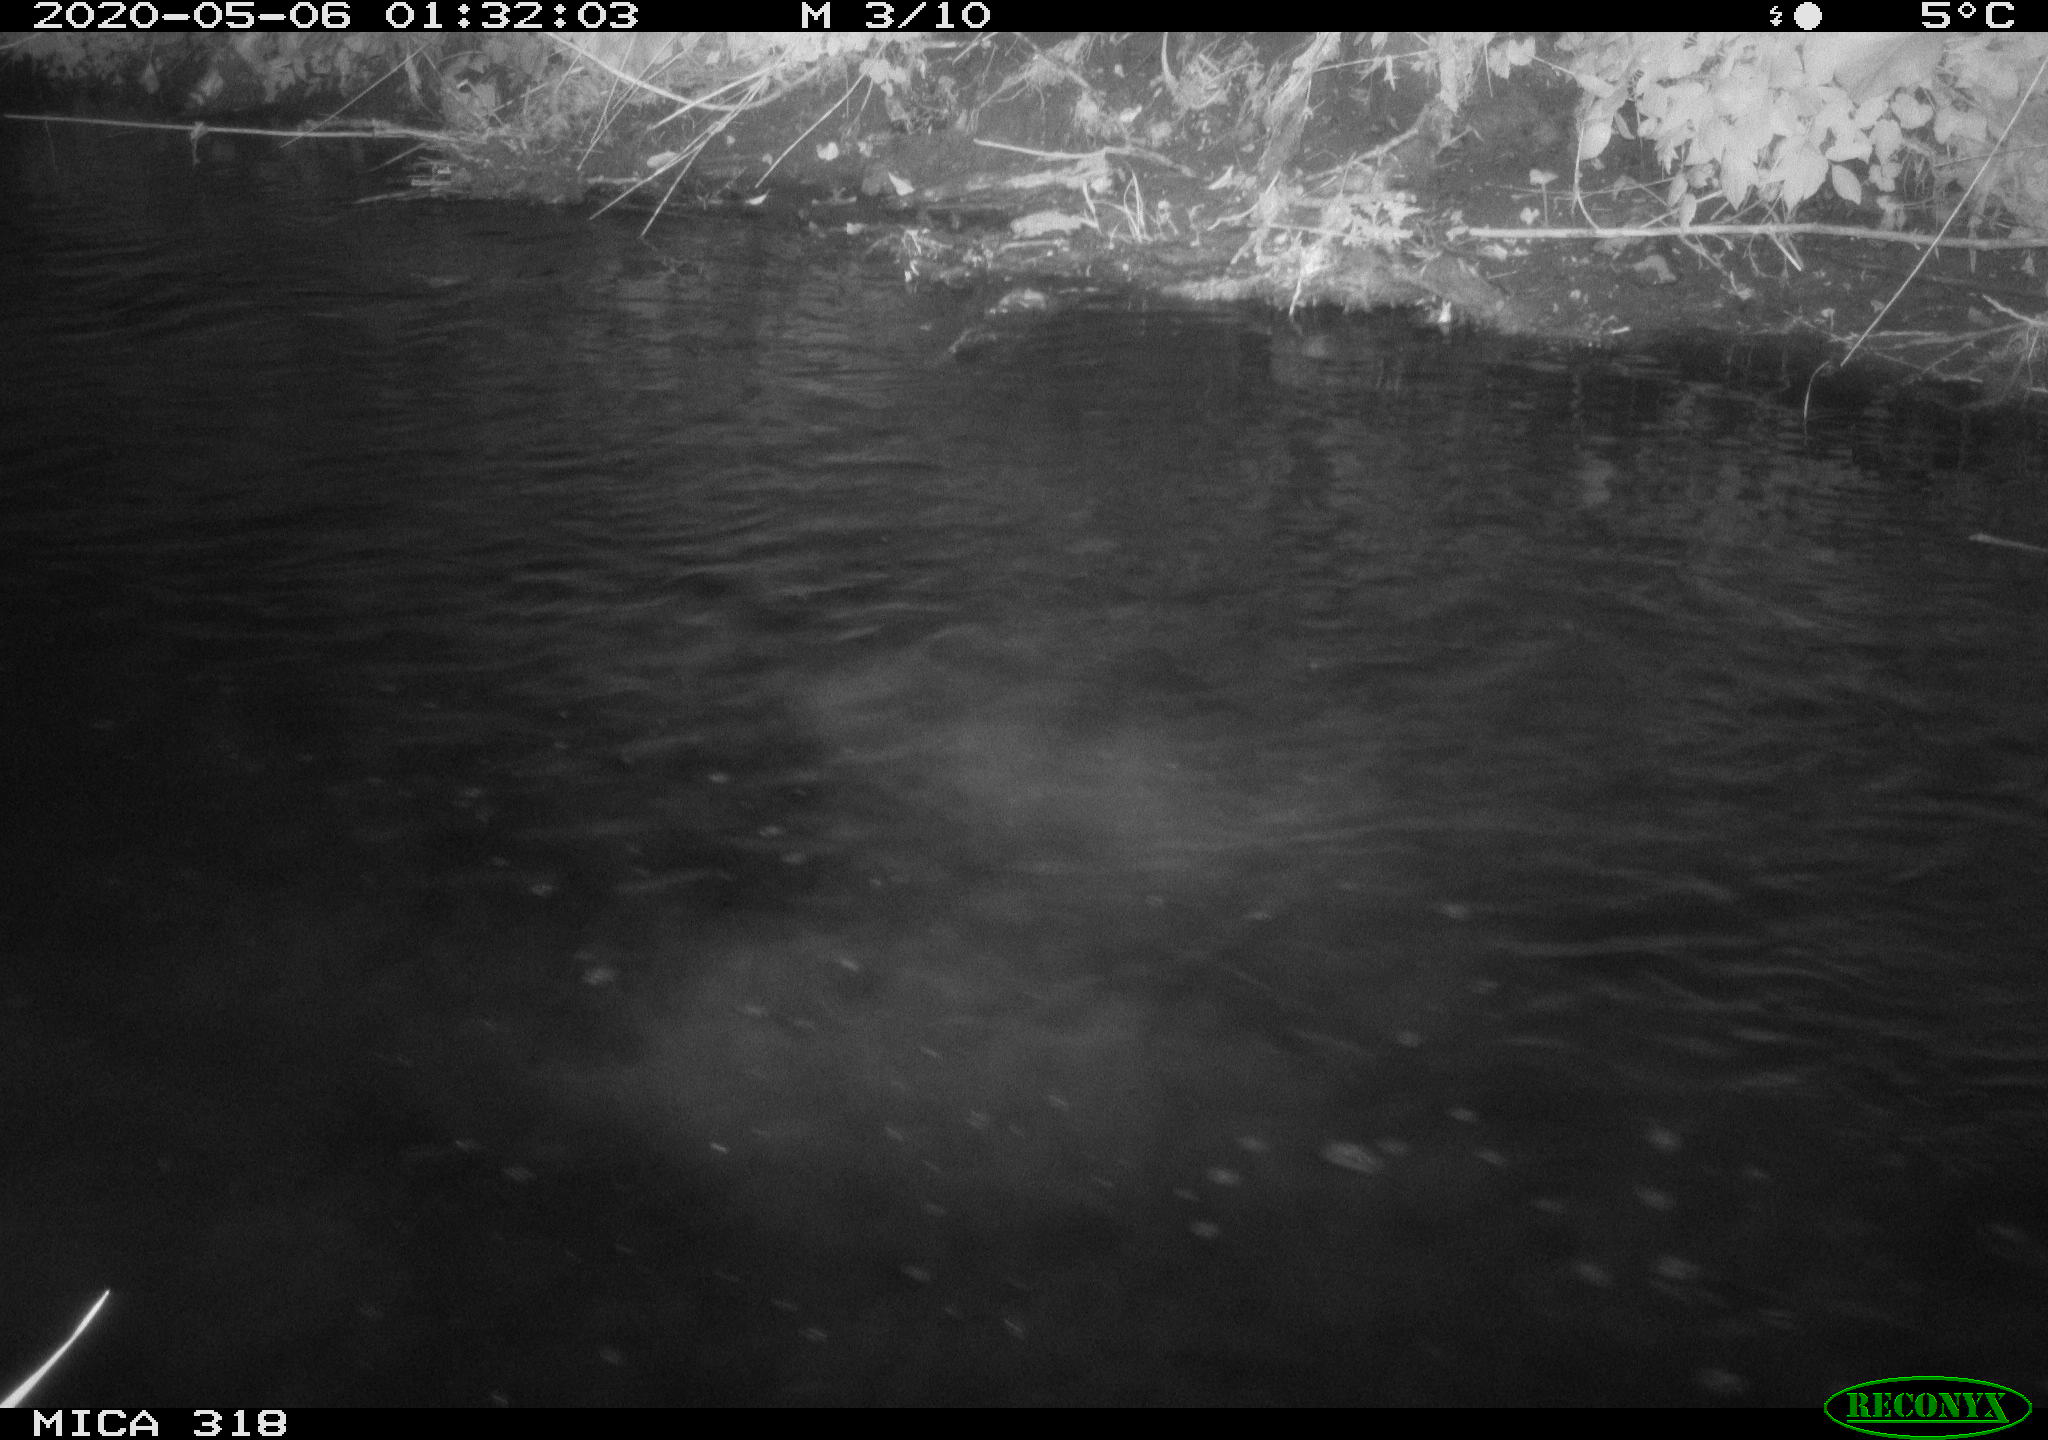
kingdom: Animalia
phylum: Chordata
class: Aves
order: Pelecaniformes
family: Ardeidae
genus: Ardea
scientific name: Ardea cinerea
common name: Grey heron
